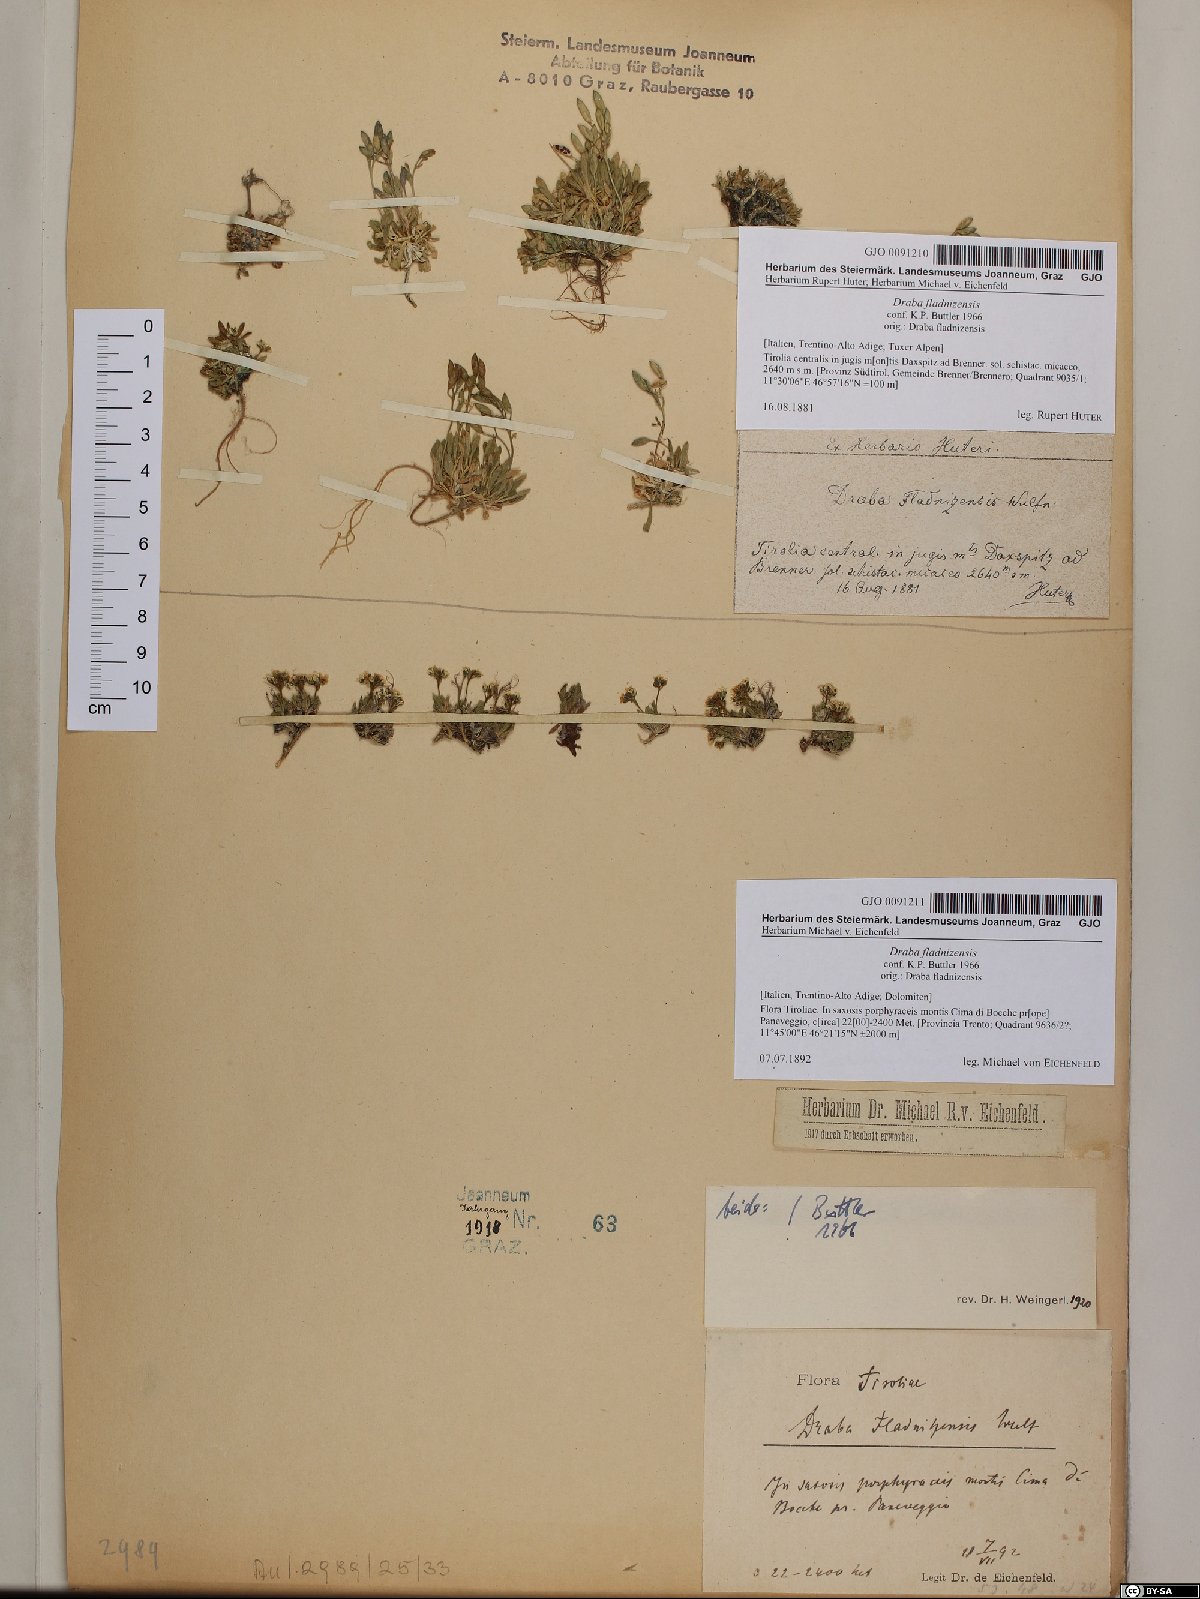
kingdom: Plantae
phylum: Tracheophyta
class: Magnoliopsida
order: Brassicales
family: Brassicaceae
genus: Draba
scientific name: Draba fladnizensis
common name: Austrian draba
